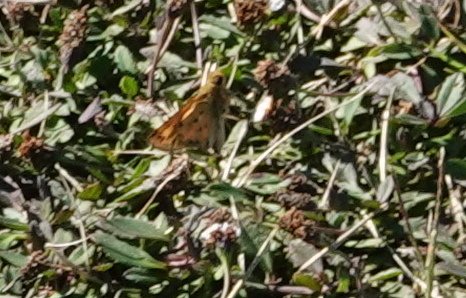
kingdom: Animalia
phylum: Arthropoda
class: Insecta
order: Lepidoptera
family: Hesperiidae
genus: Hylephila
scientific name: Hylephila phyleus
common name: Fiery Skipper
